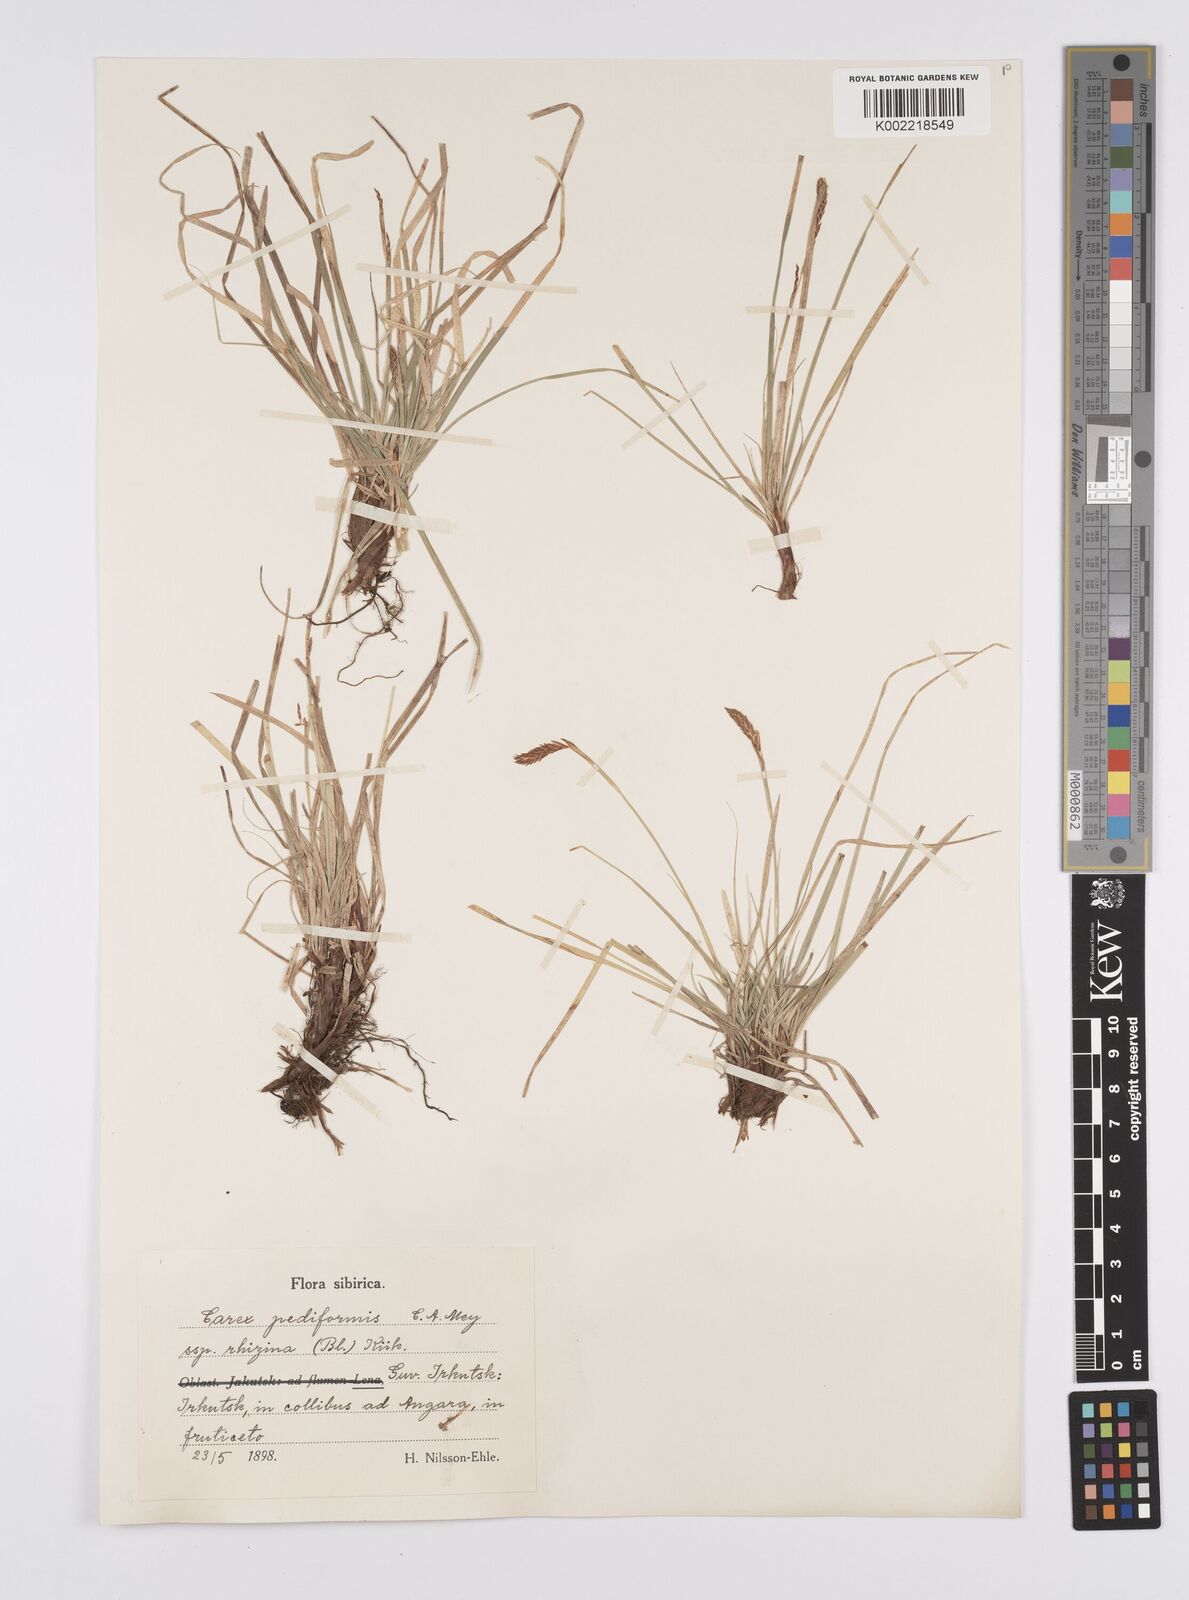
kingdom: Plantae
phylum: Tracheophyta
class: Liliopsida
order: Poales
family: Cyperaceae
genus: Carex
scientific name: Carex pediformis
